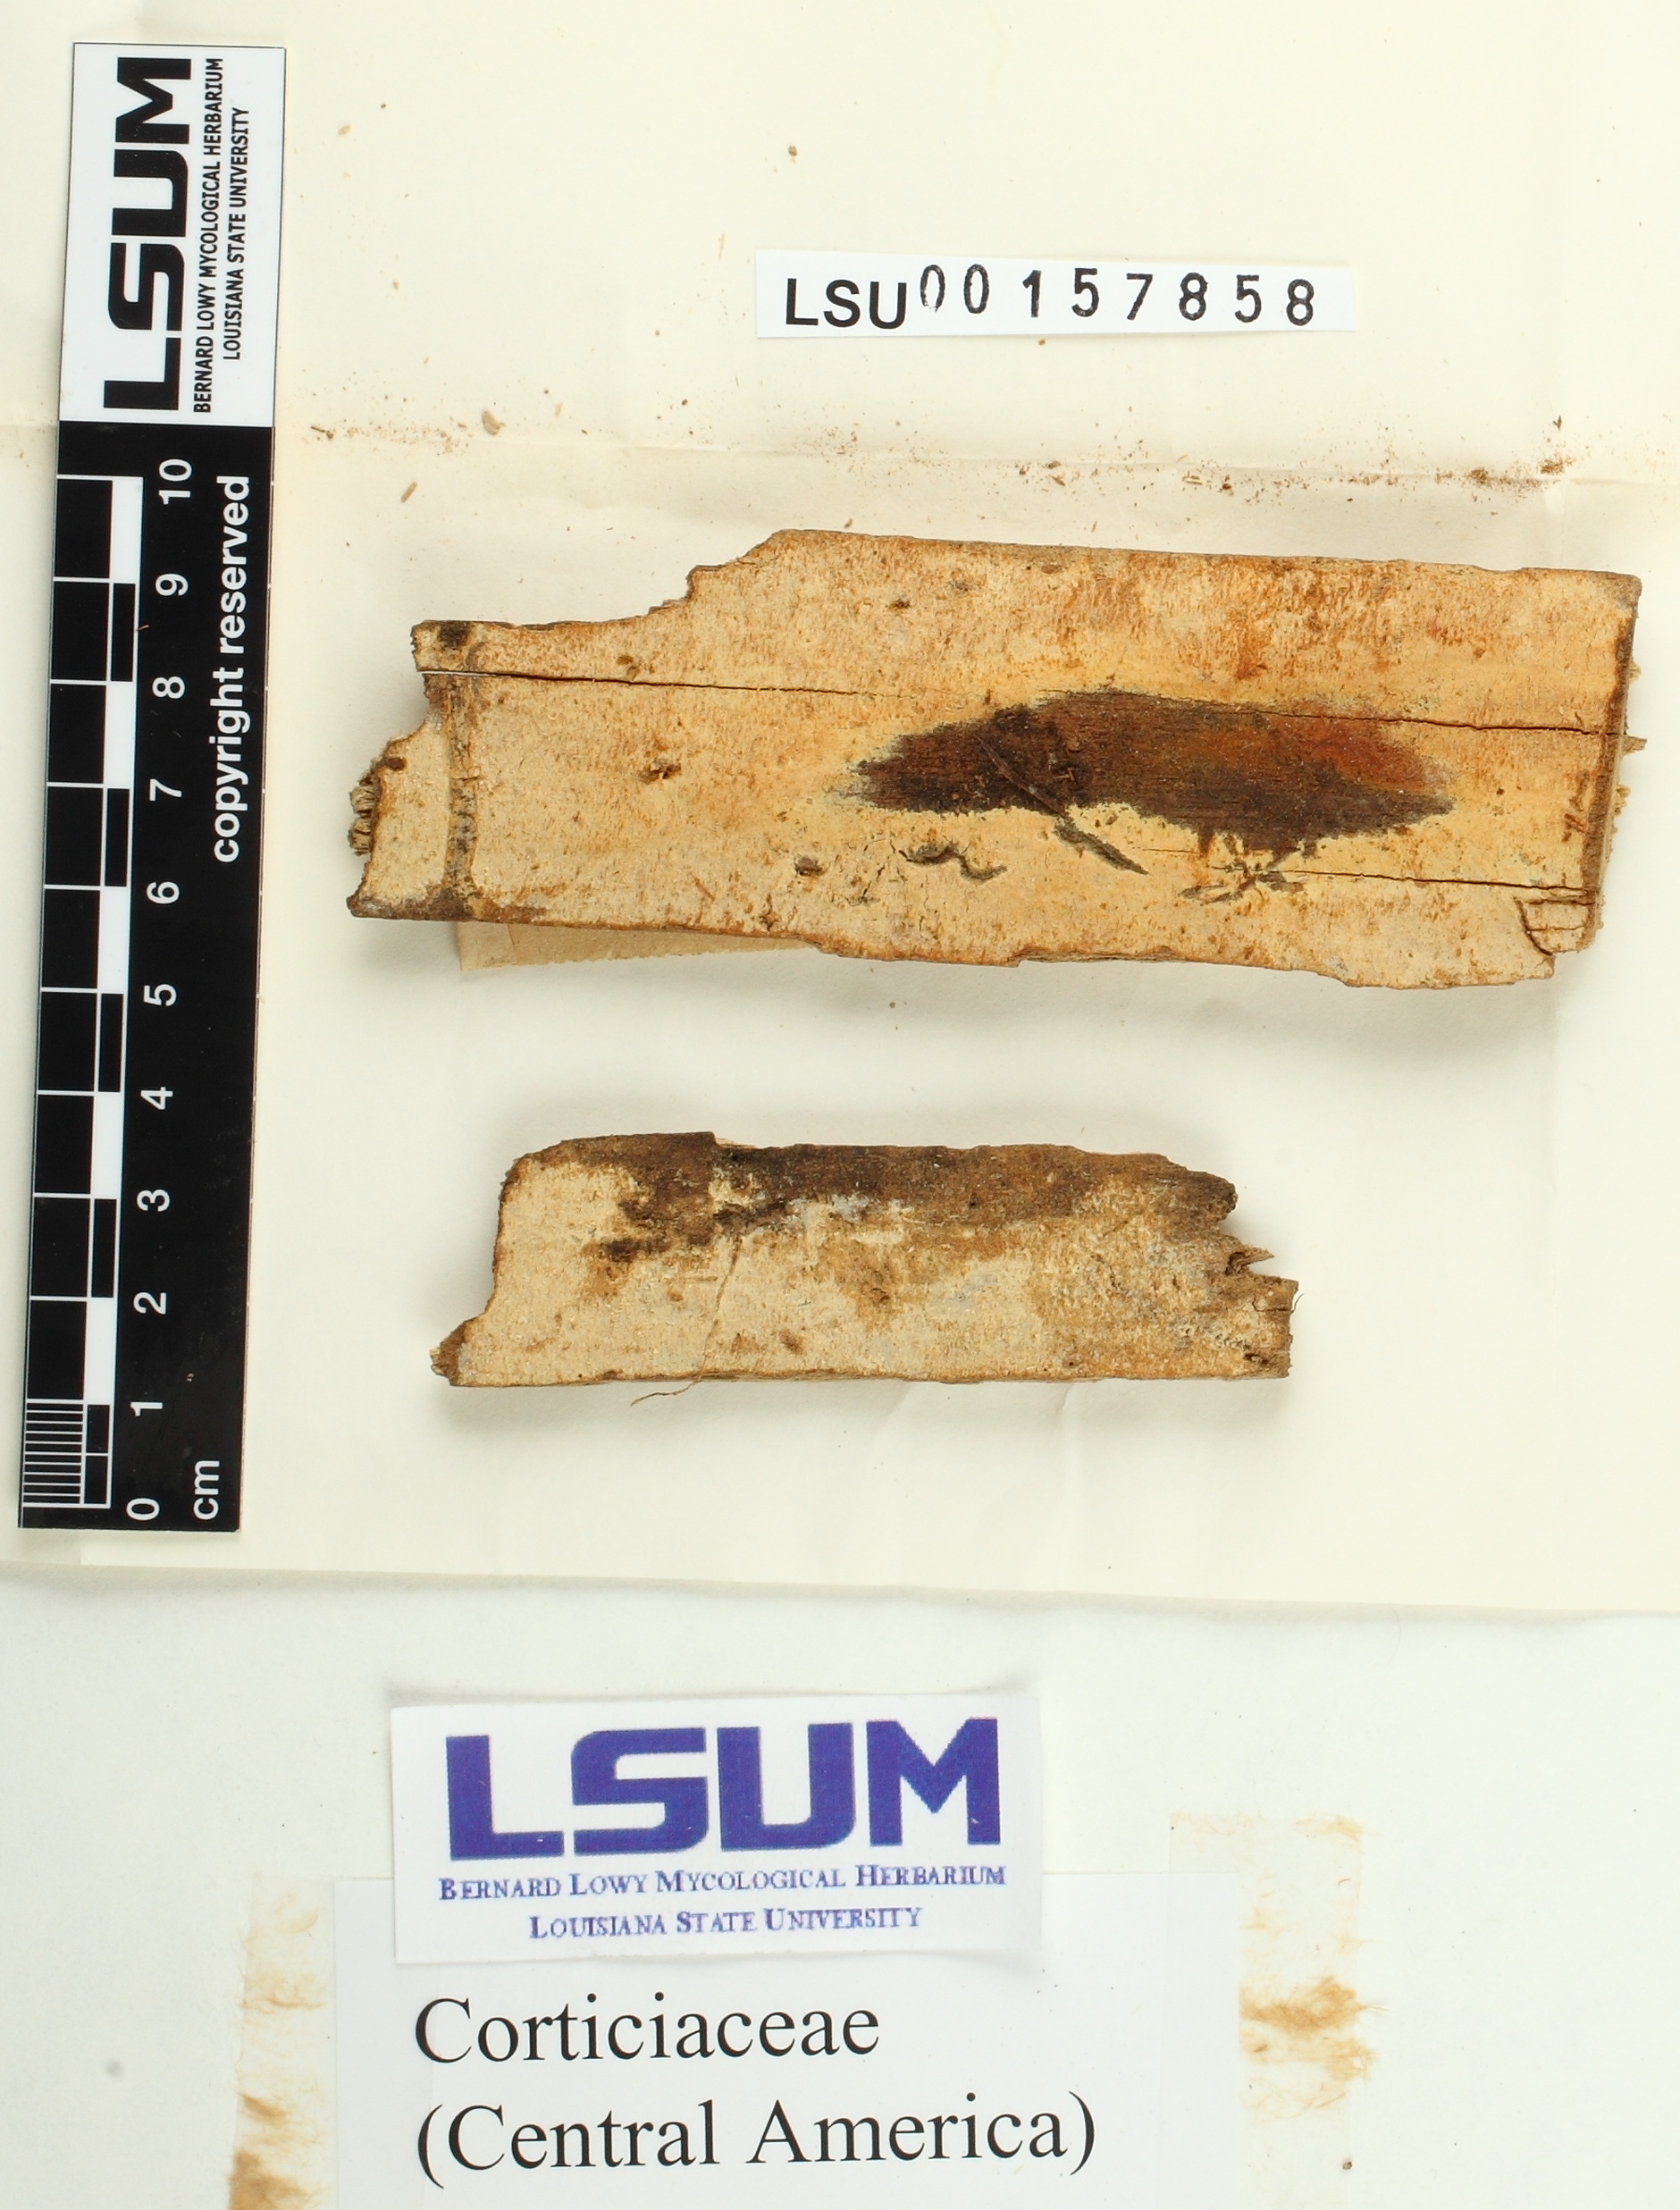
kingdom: Fungi
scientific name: Fungi
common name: Fungi
